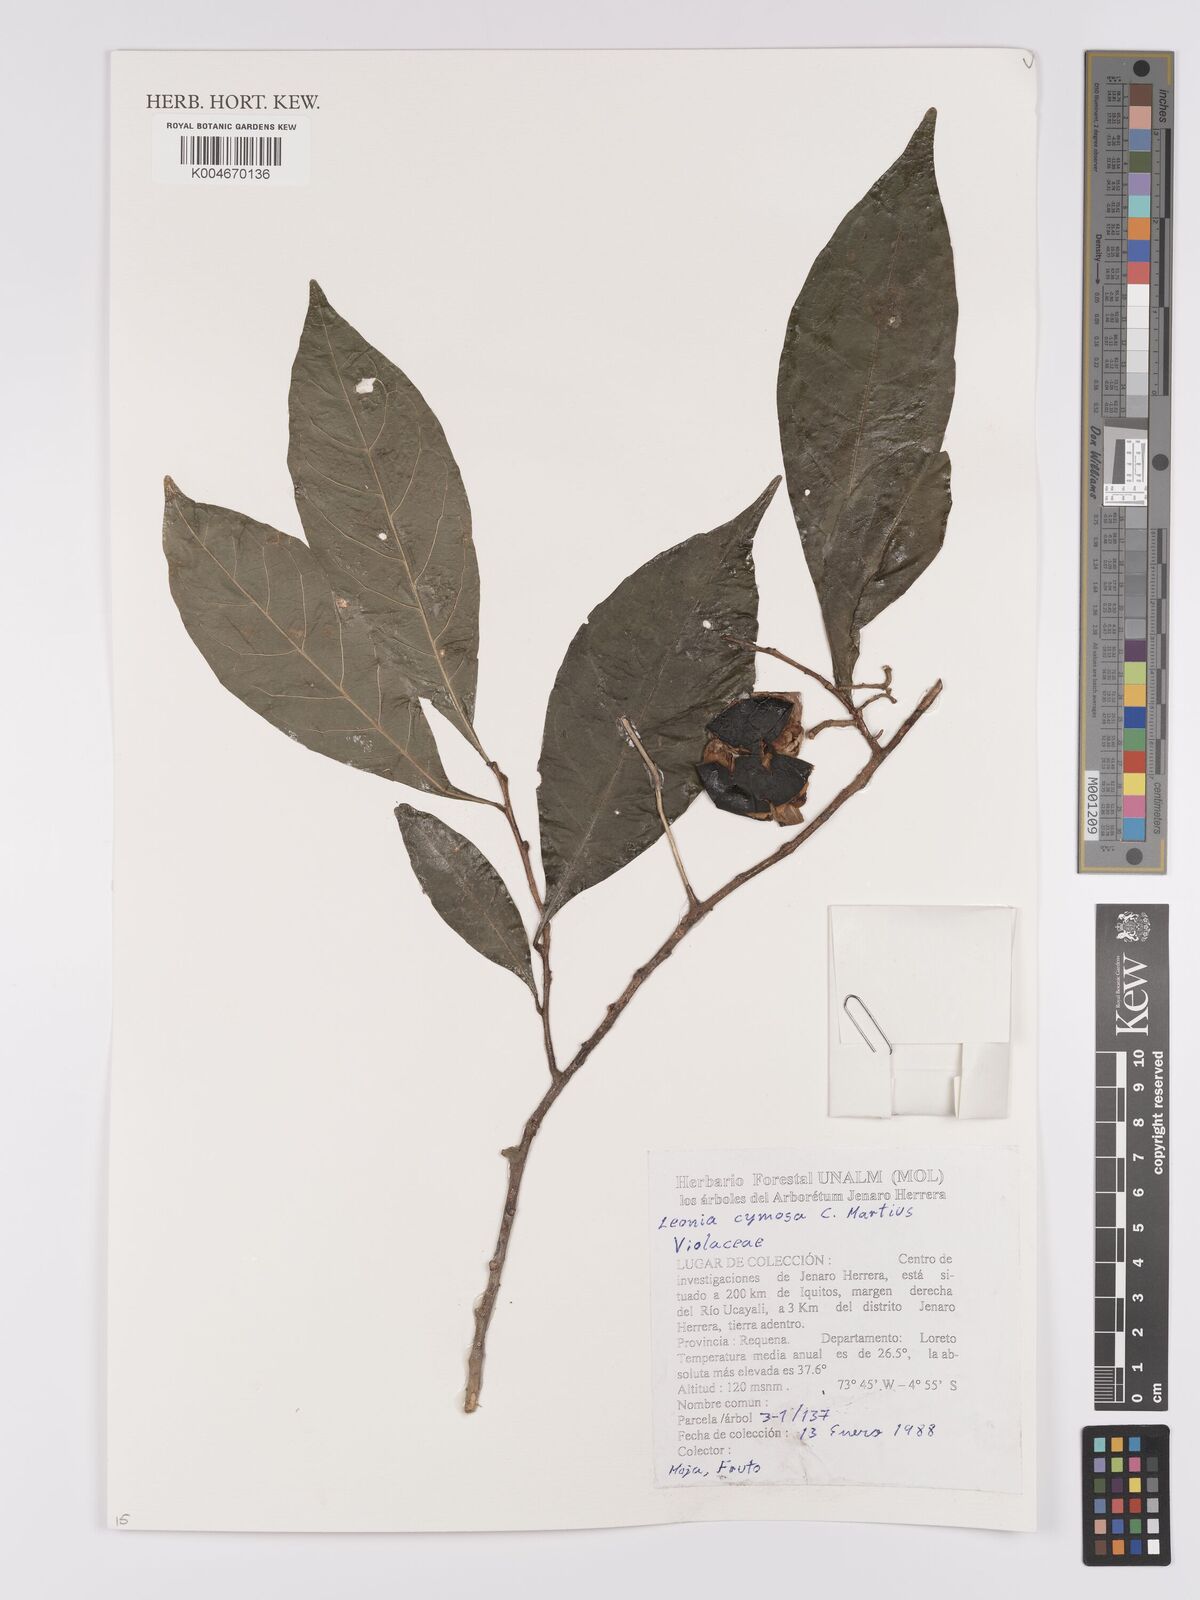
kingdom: Plantae
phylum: Tracheophyta
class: Magnoliopsida
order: Malpighiales
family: Violaceae
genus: Leonia
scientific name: Leonia cymosa
